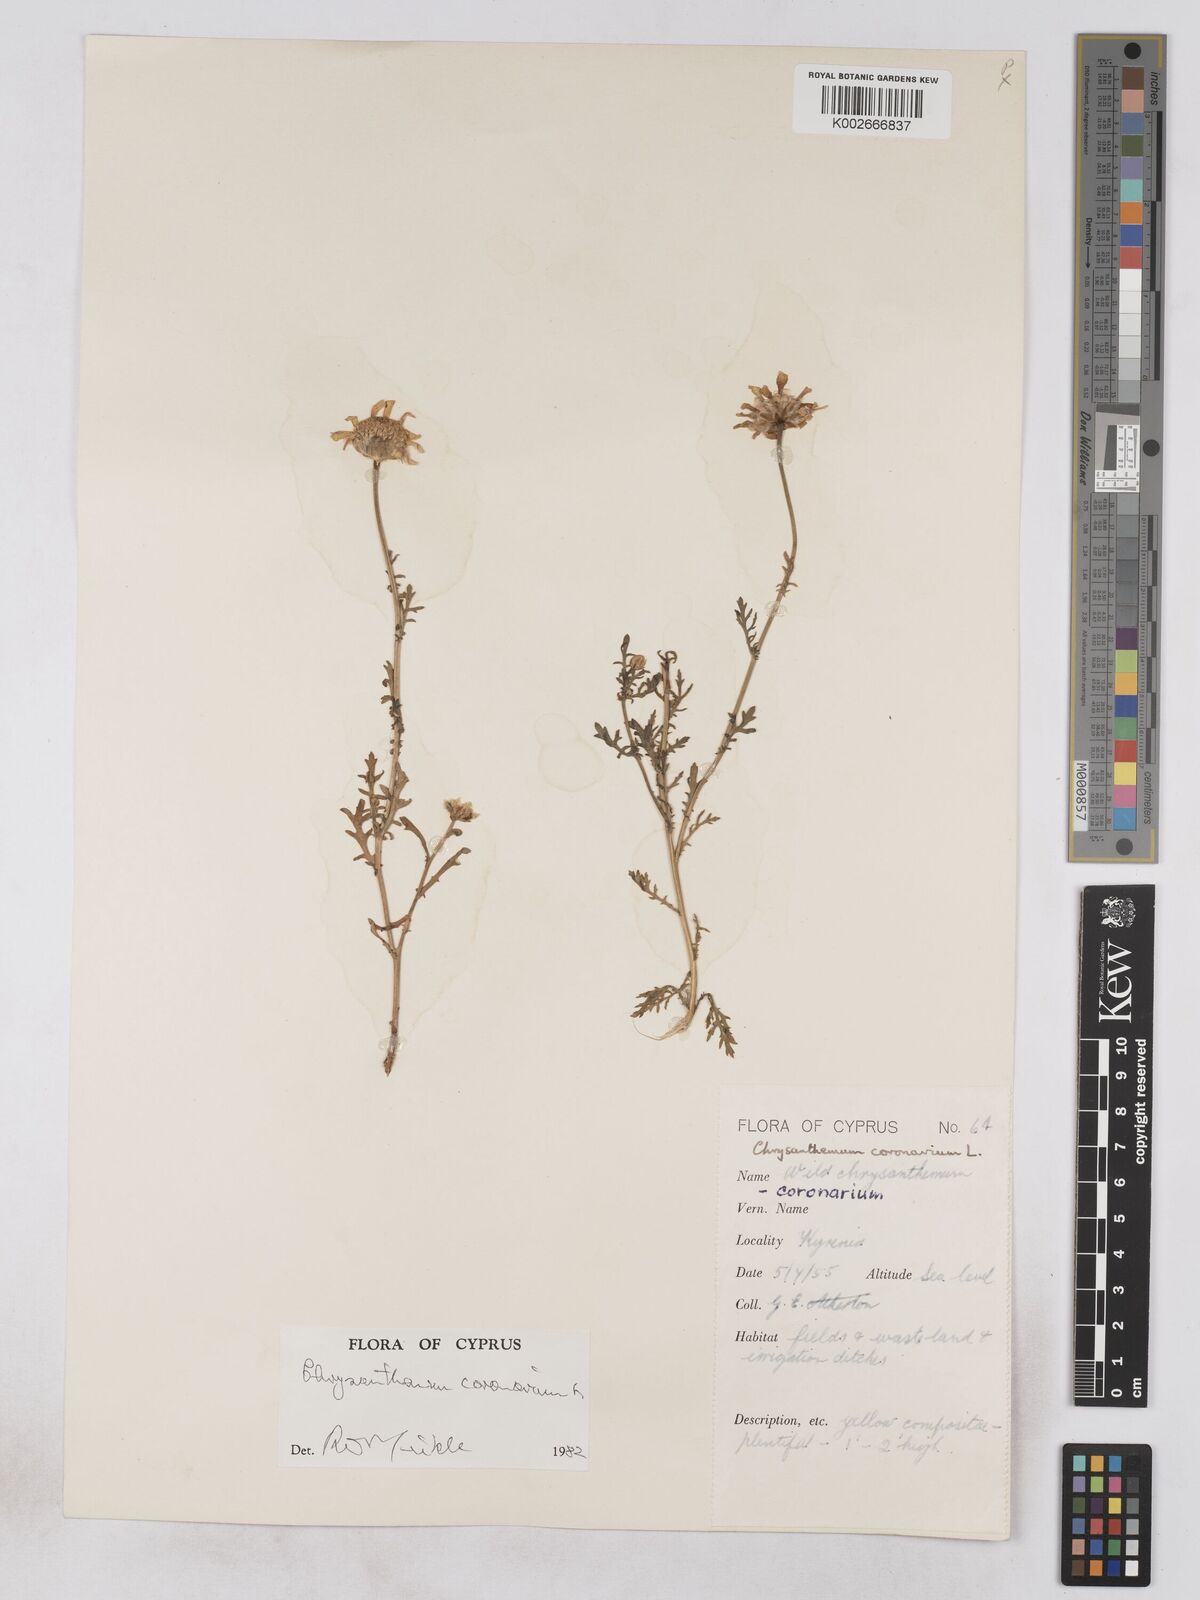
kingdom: Plantae
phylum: Tracheophyta
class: Magnoliopsida
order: Asterales
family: Asteraceae
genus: Glebionis
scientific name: Glebionis coronaria
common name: Crowndaisy
